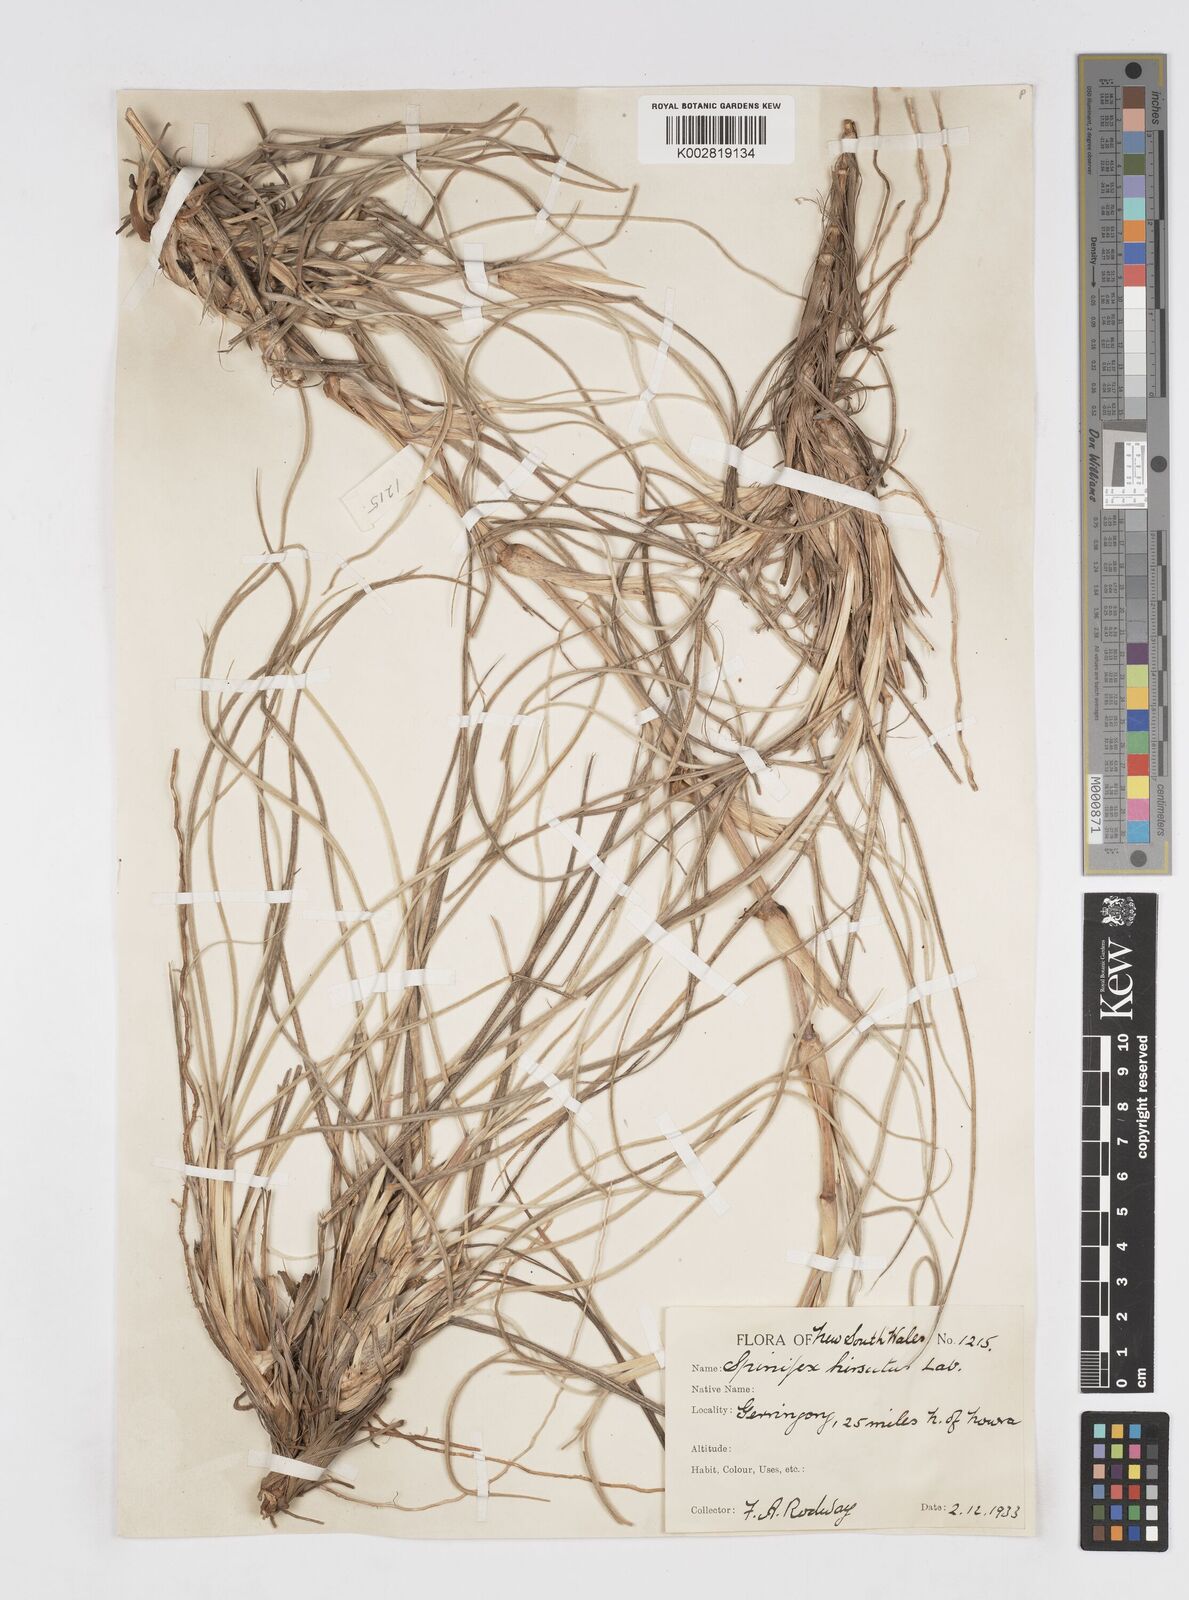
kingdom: Plantae
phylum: Tracheophyta
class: Liliopsida
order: Poales
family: Poaceae
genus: Spinifex
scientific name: Spinifex sericeus
